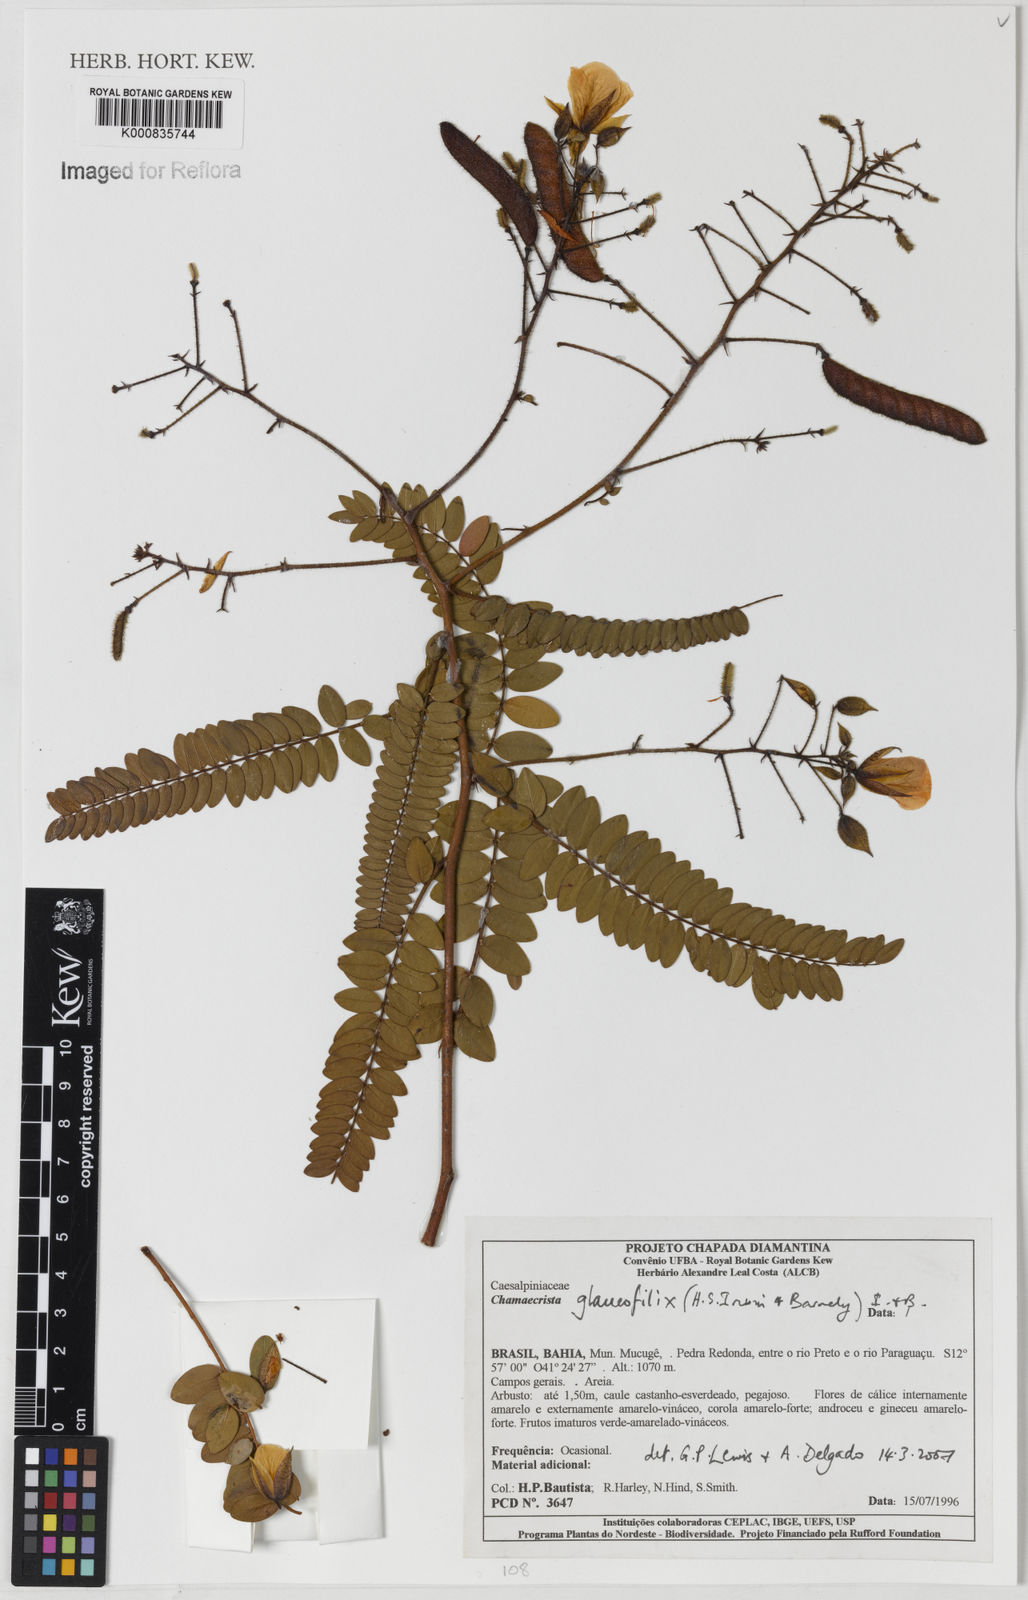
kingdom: Plantae
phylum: Tracheophyta
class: Magnoliopsida
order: Fabales
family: Fabaceae
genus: Chamaecrista
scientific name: Chamaecrista glaucofilix
